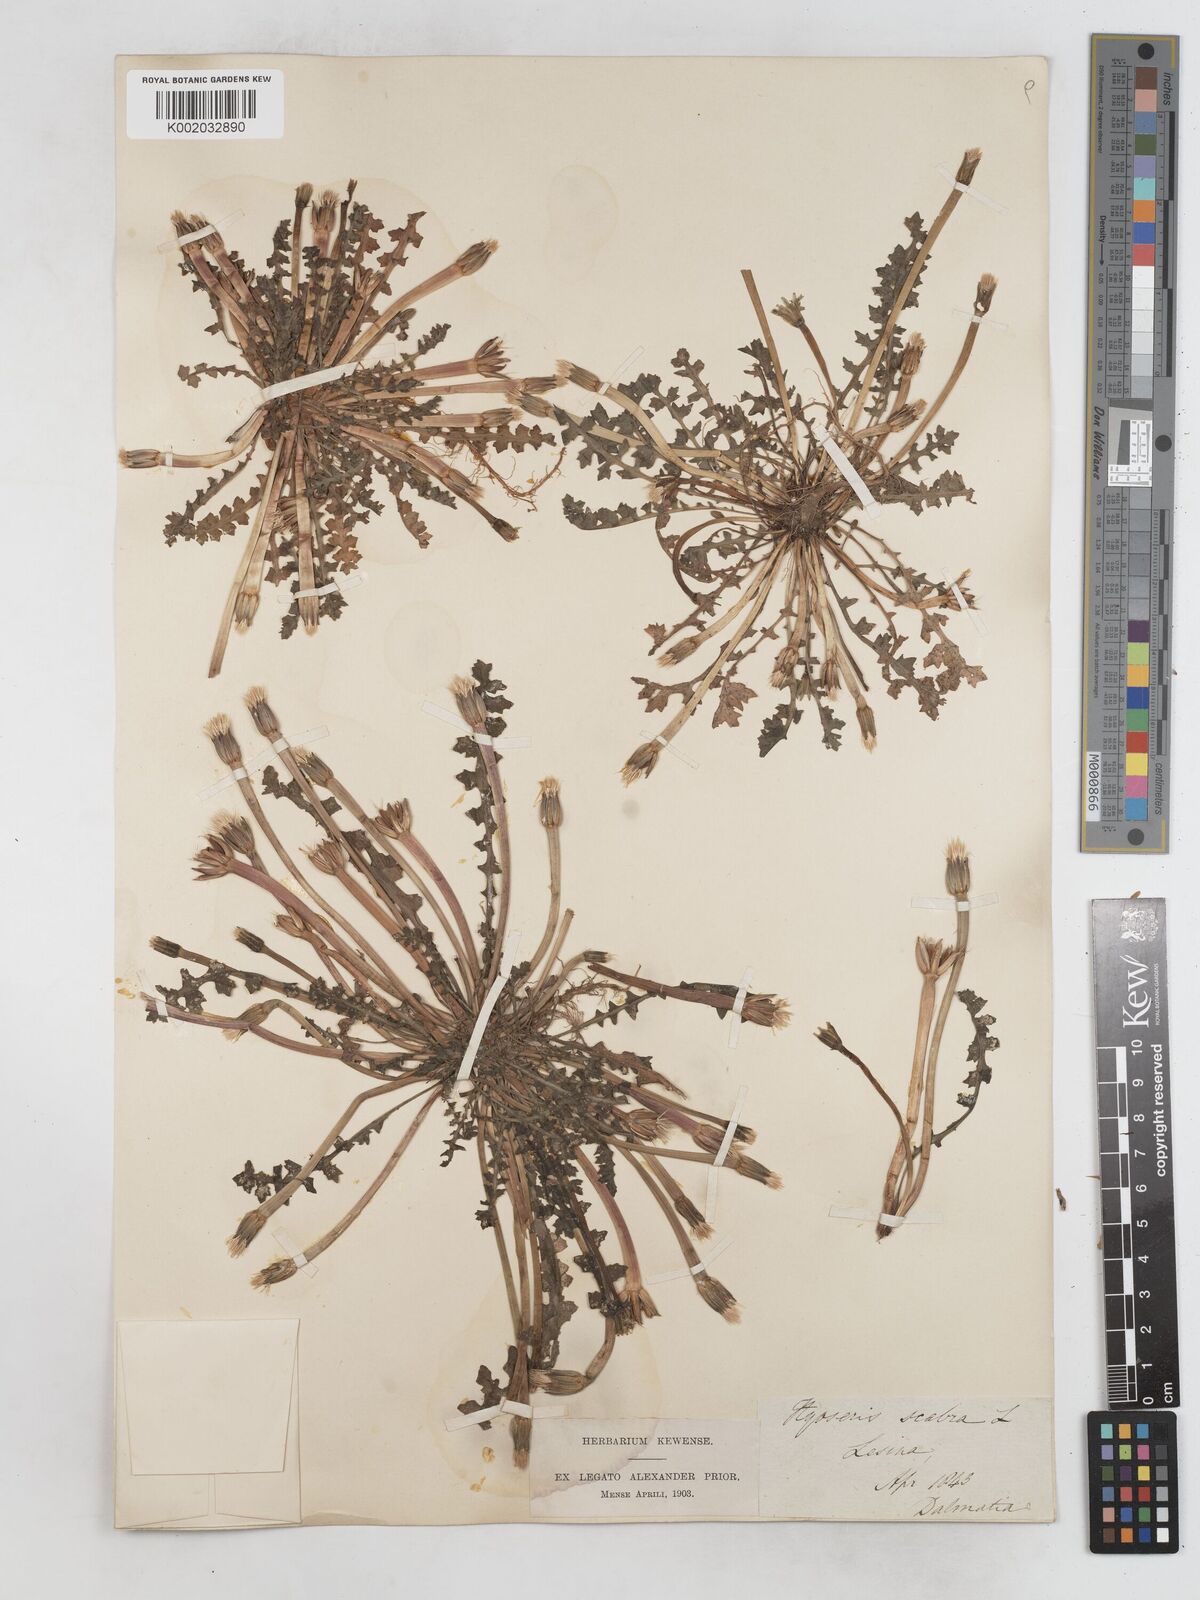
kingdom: Plantae
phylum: Tracheophyta
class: Magnoliopsida
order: Asterales
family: Asteraceae
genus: Hyoseris
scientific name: Hyoseris scabra
